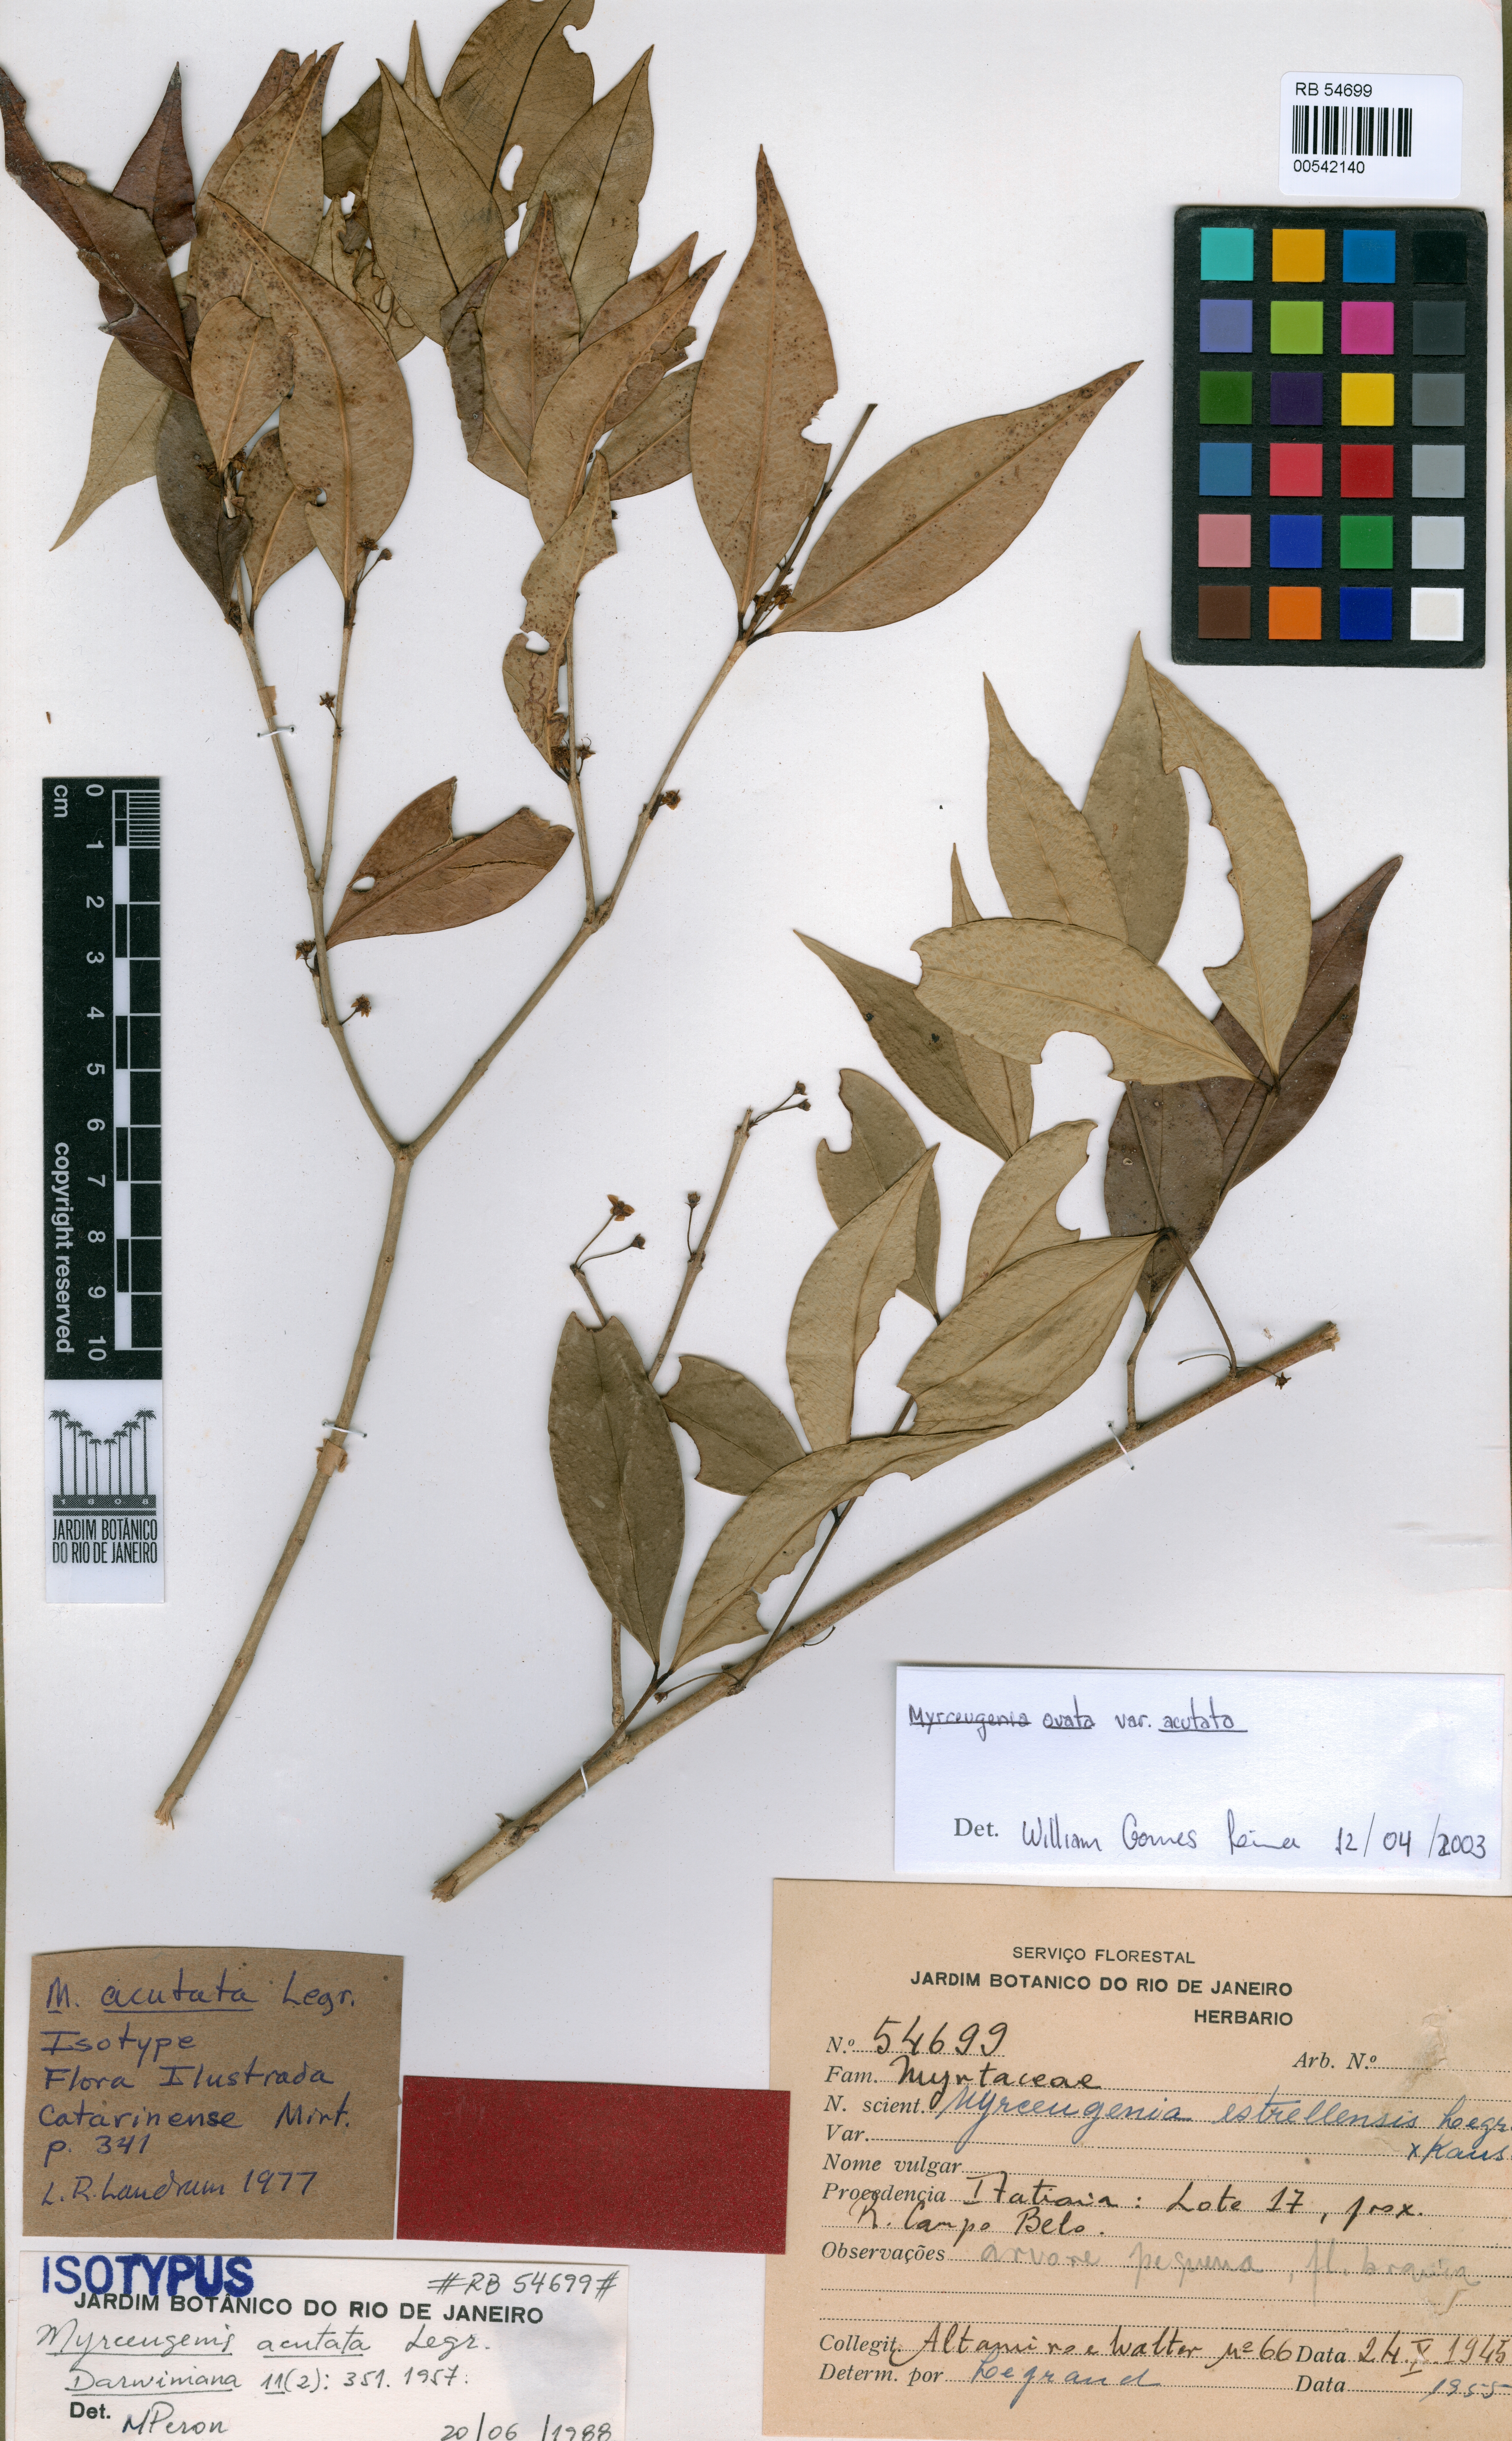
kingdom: Plantae
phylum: Tracheophyta
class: Magnoliopsida
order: Myrtales
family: Myrtaceae
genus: Myrceugenia
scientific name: Myrceugenia ovata
